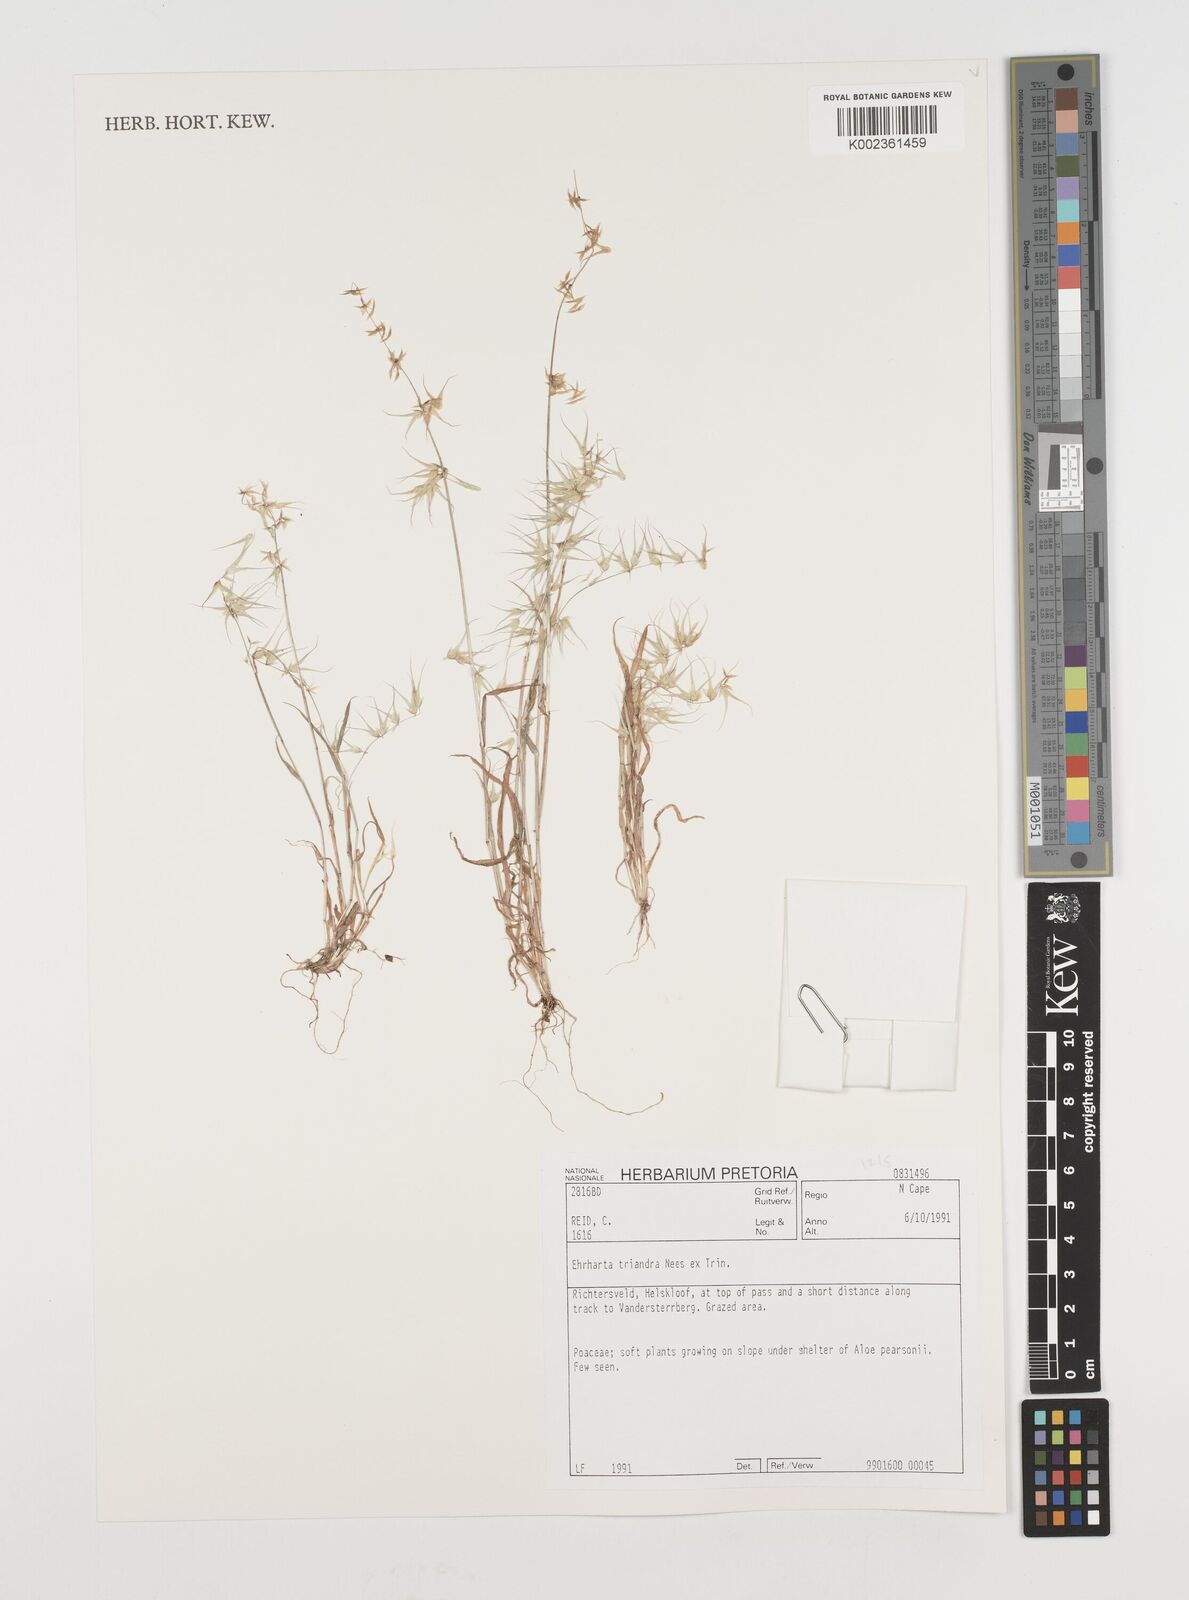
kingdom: Plantae
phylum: Tracheophyta
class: Liliopsida
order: Poales
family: Poaceae
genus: Ehrharta
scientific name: Ehrharta triandra
